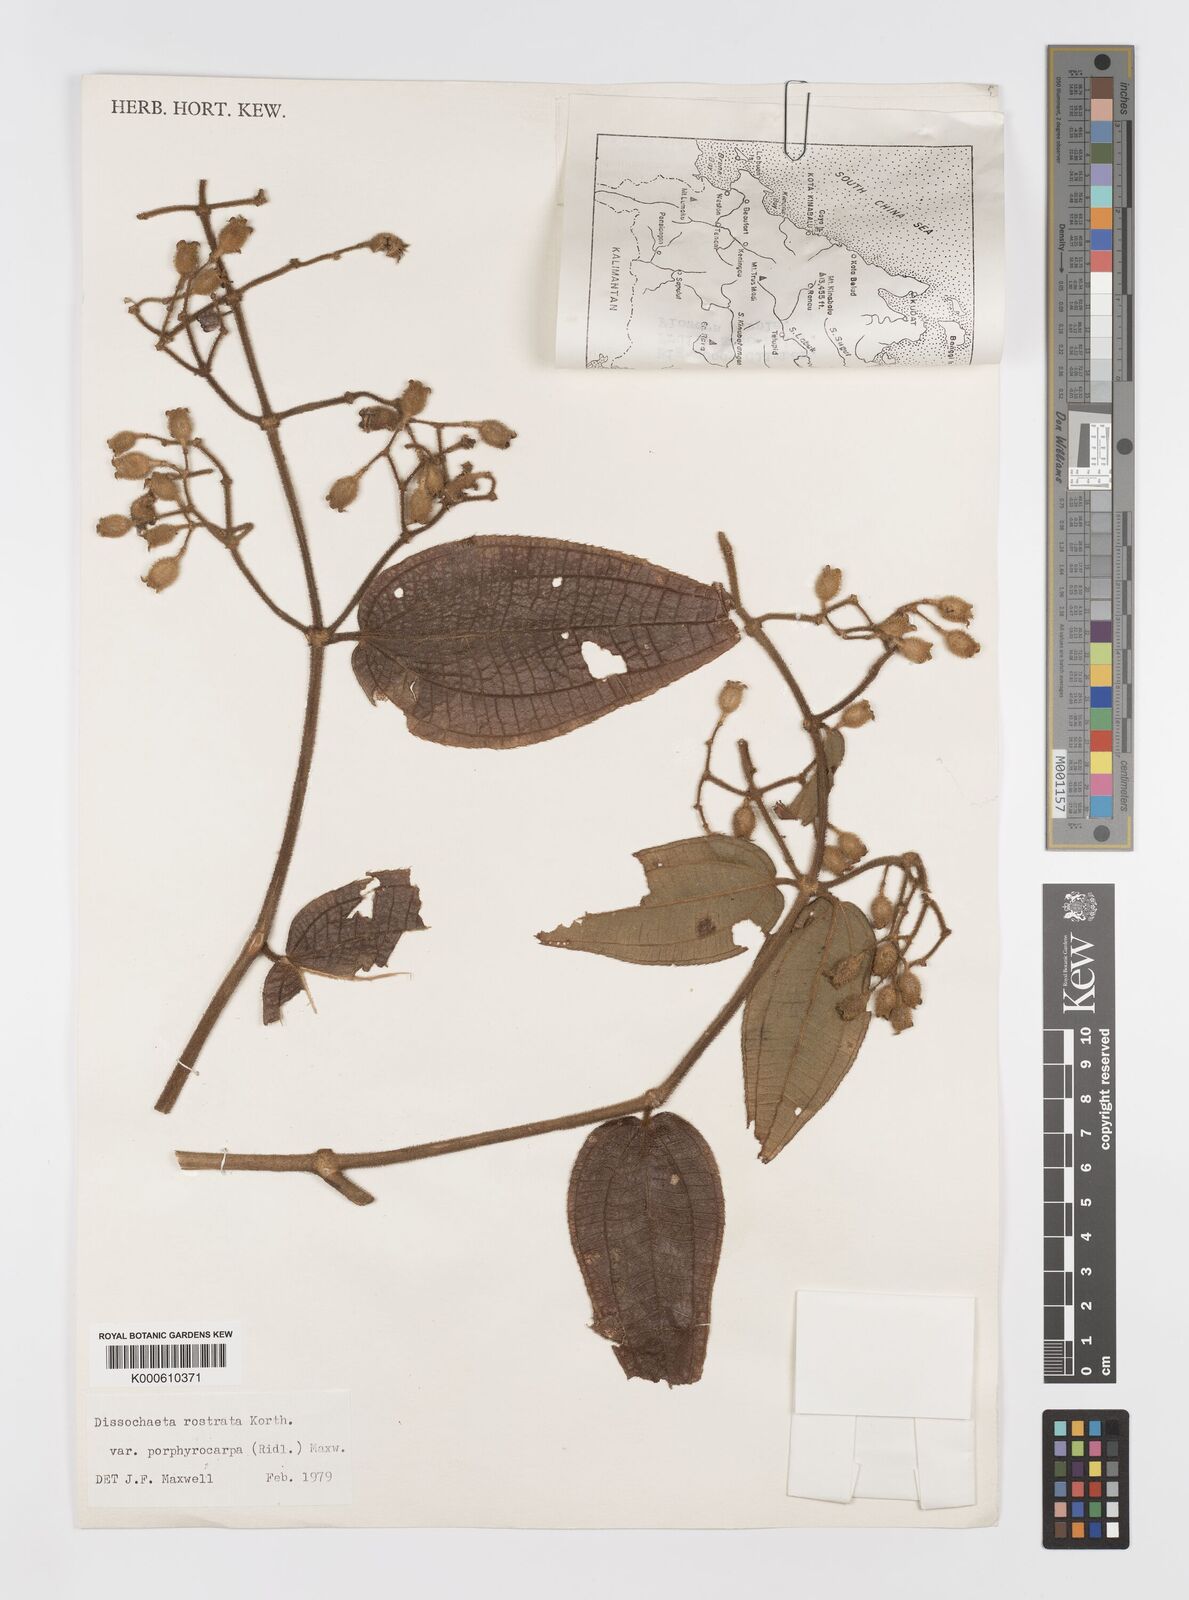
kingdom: Plantae
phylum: Tracheophyta
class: Magnoliopsida
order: Myrtales
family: Melastomataceae
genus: Macrolenes
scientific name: Macrolenes porphyrocarpa
